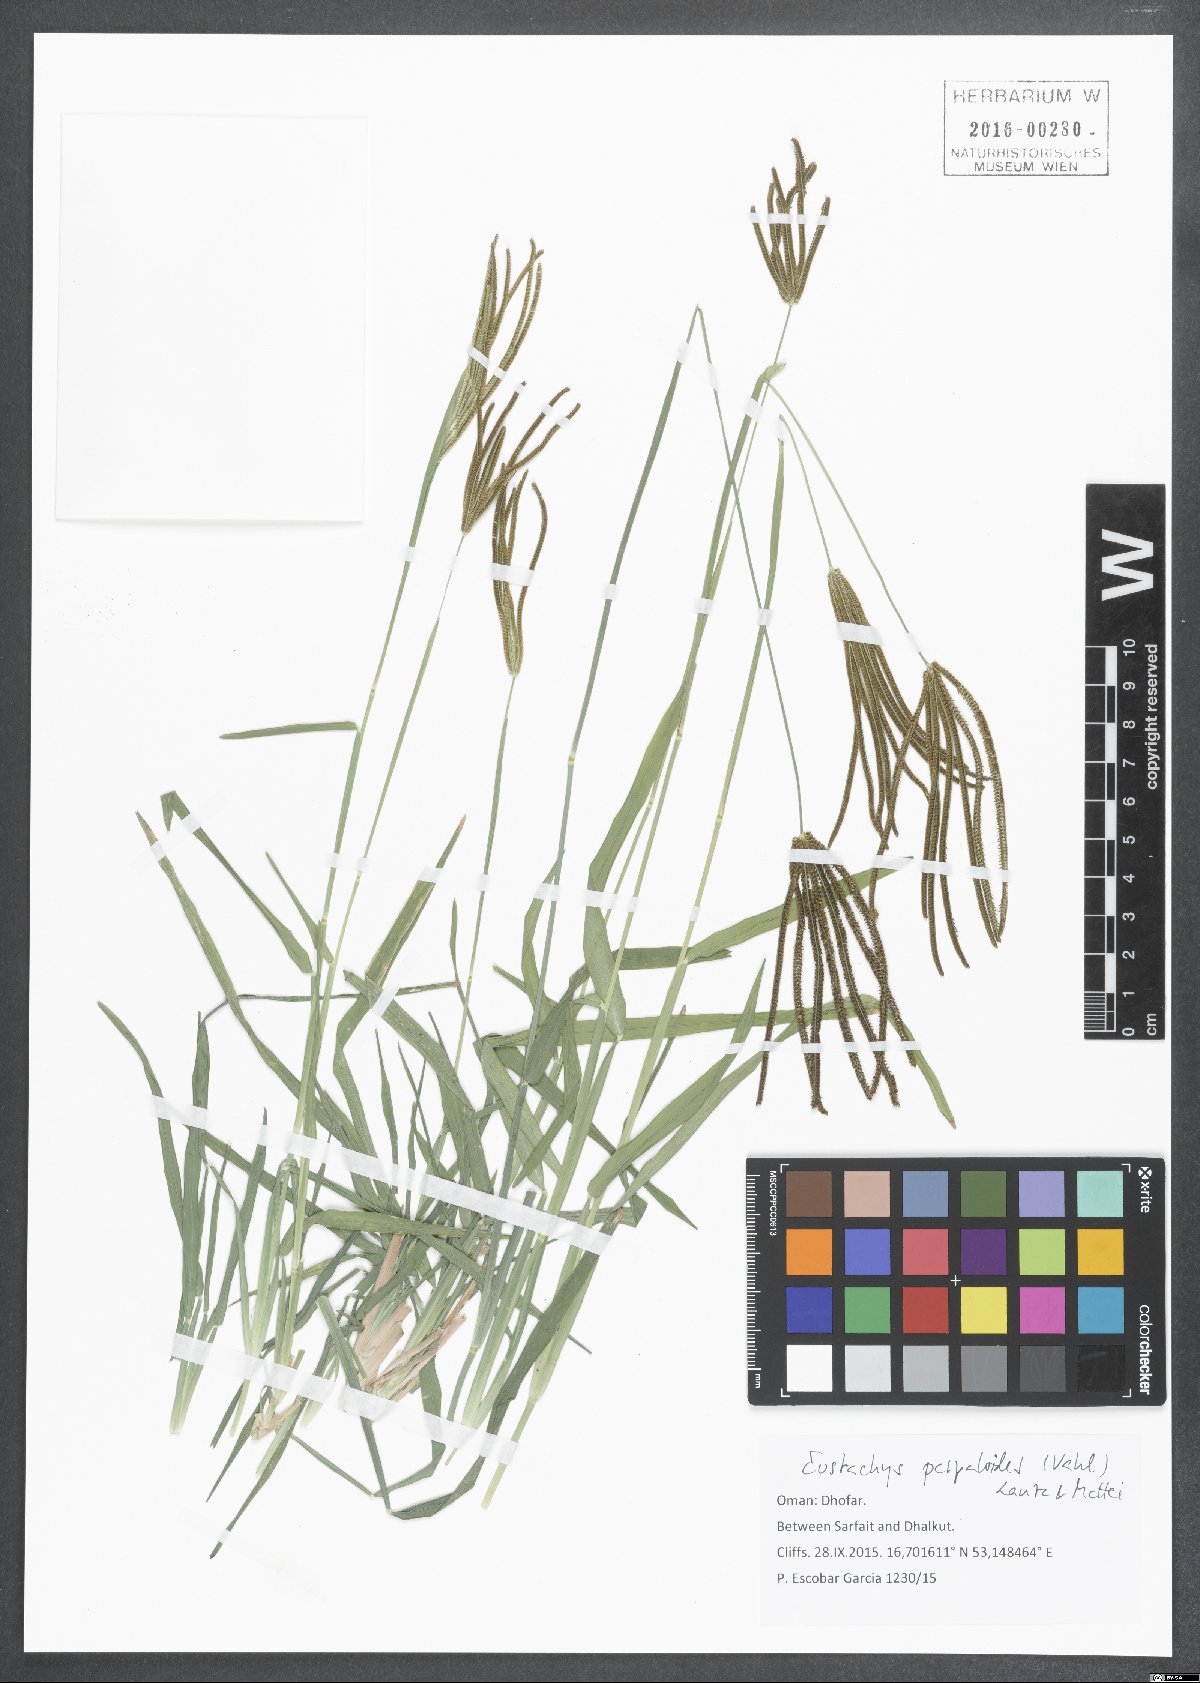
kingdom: Plantae
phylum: Tracheophyta
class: Liliopsida
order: Poales
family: Poaceae
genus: Eustachys
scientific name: Eustachys paspaloides
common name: Caribbean fingergrass
